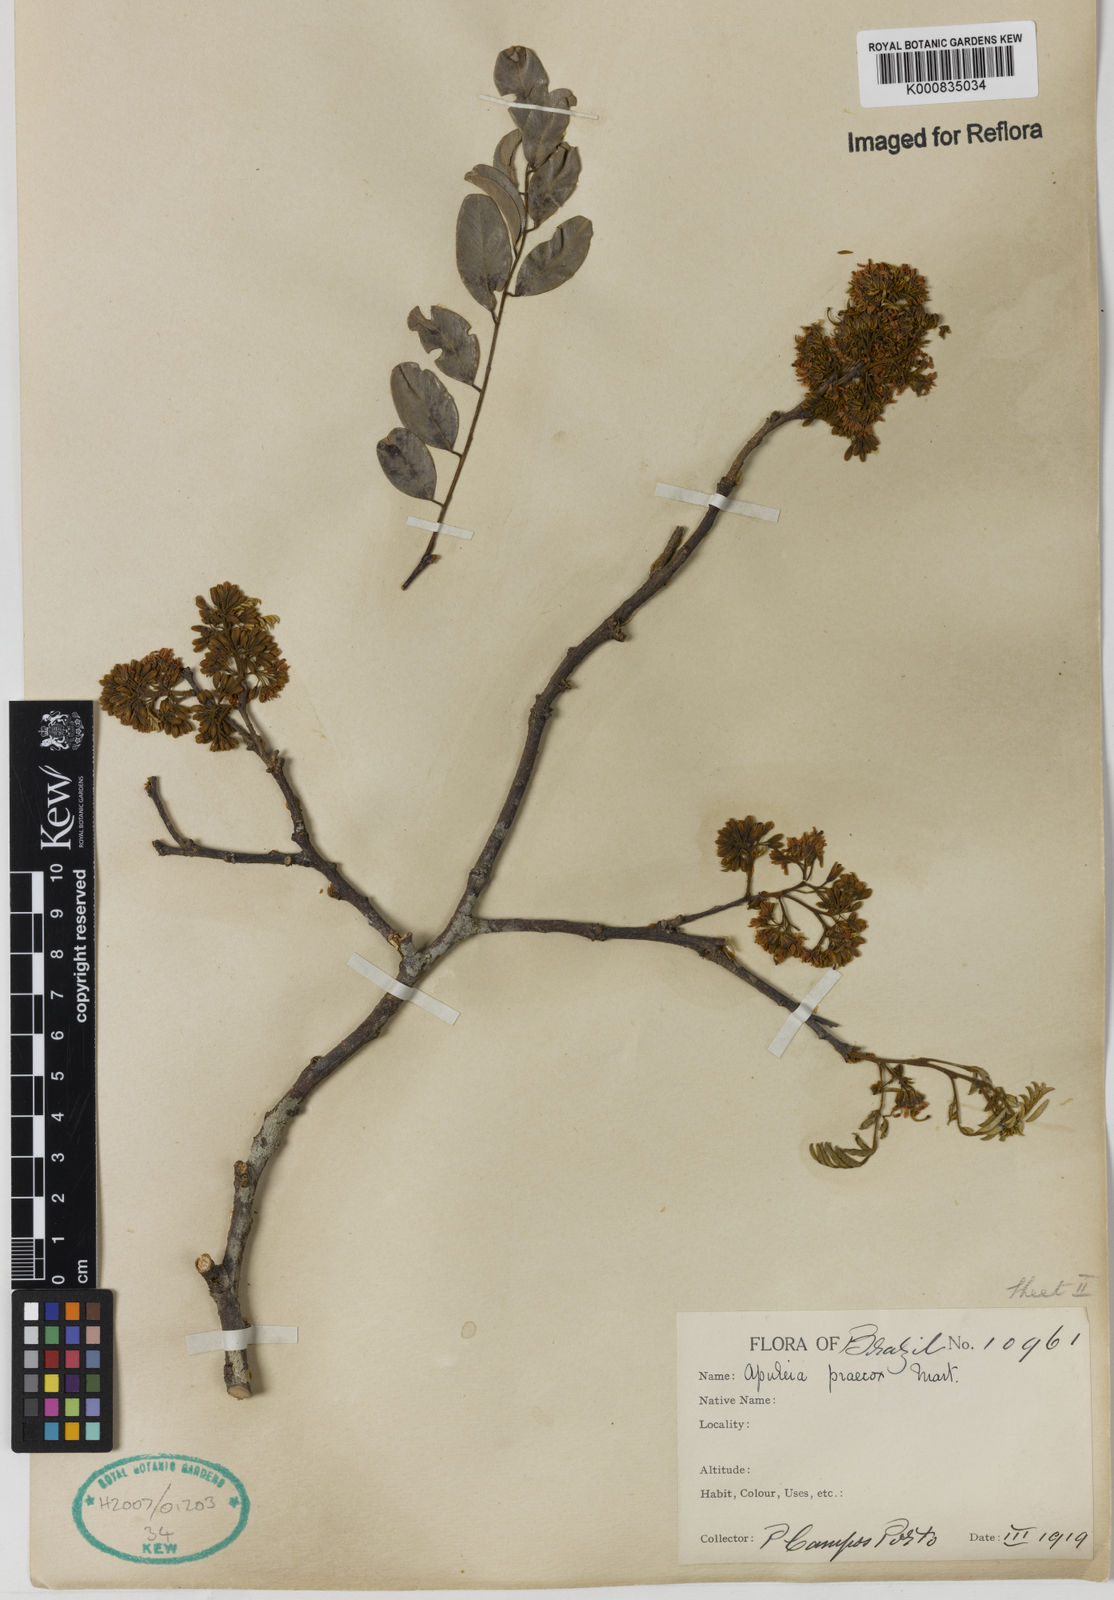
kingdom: Plantae
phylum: Tracheophyta
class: Magnoliopsida
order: Fabales
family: Fabaceae
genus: Apuleia
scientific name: Apuleia leiocarpa
